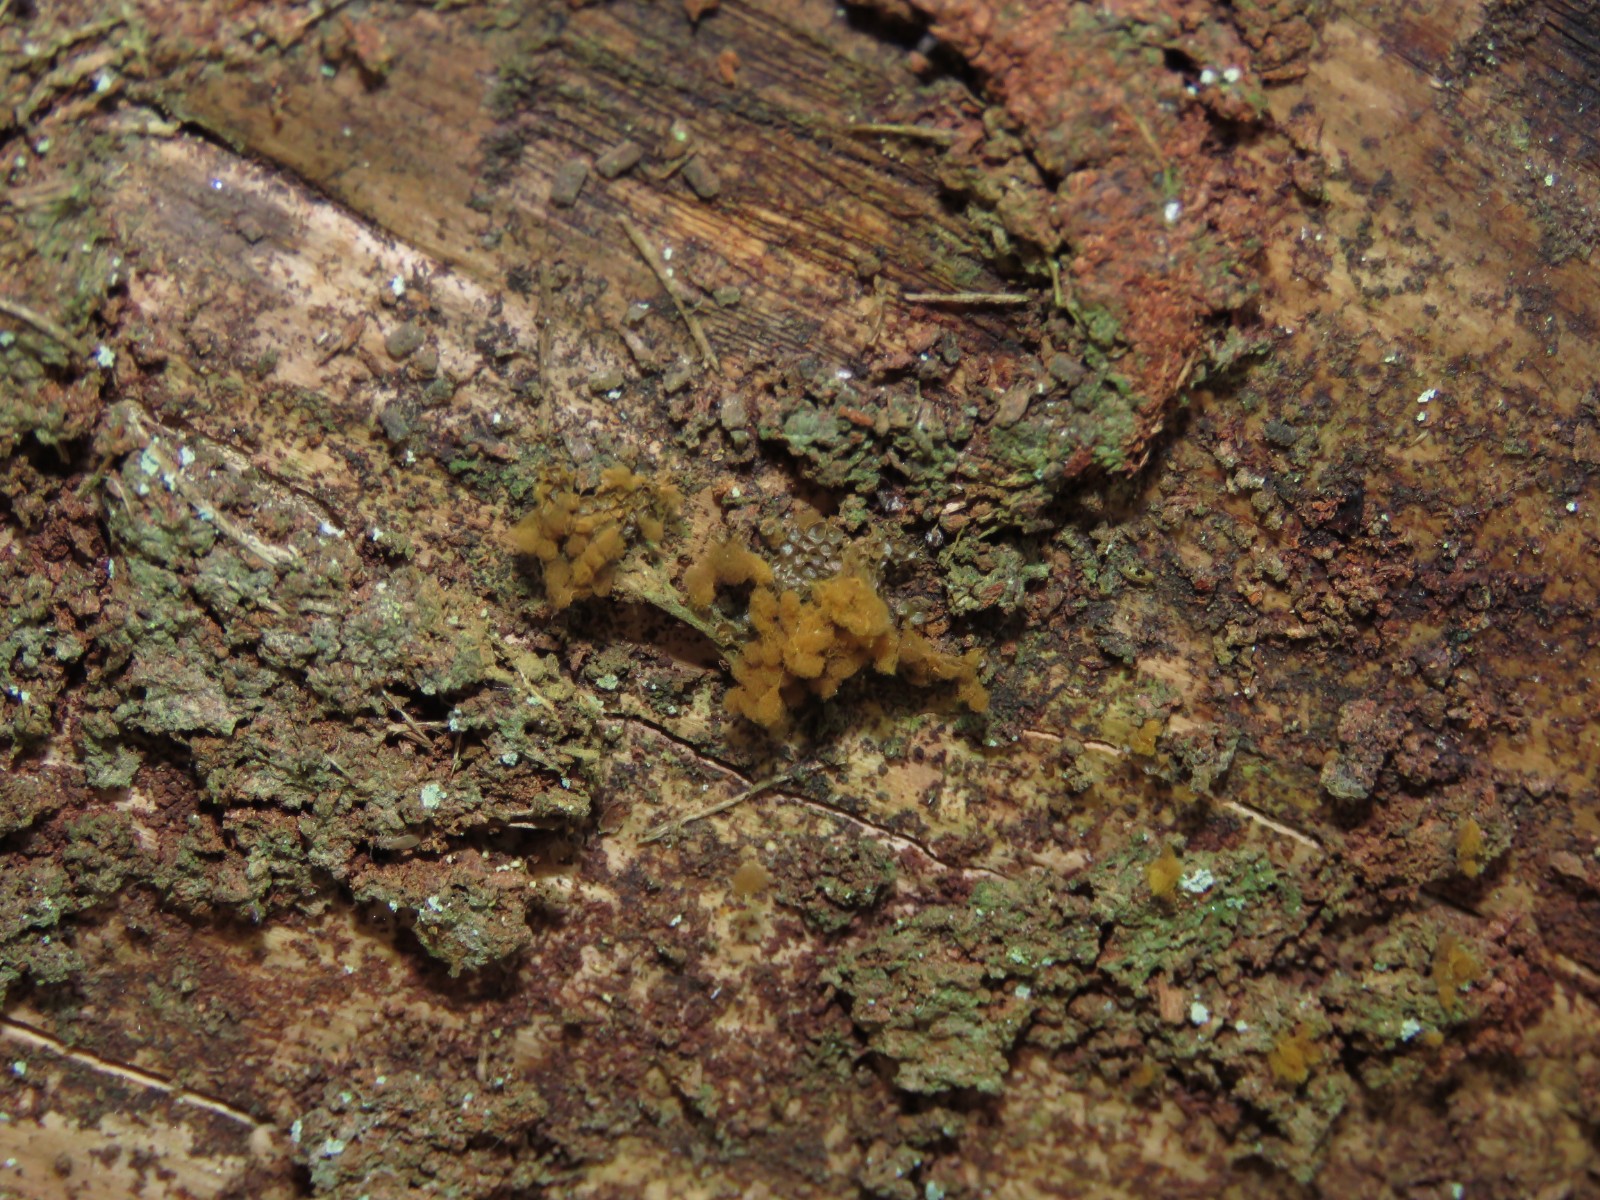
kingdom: Protozoa
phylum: Mycetozoa
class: Myxomycetes
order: Trichiales
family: Arcyriaceae
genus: Arcyria
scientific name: Arcyria ferruginea
